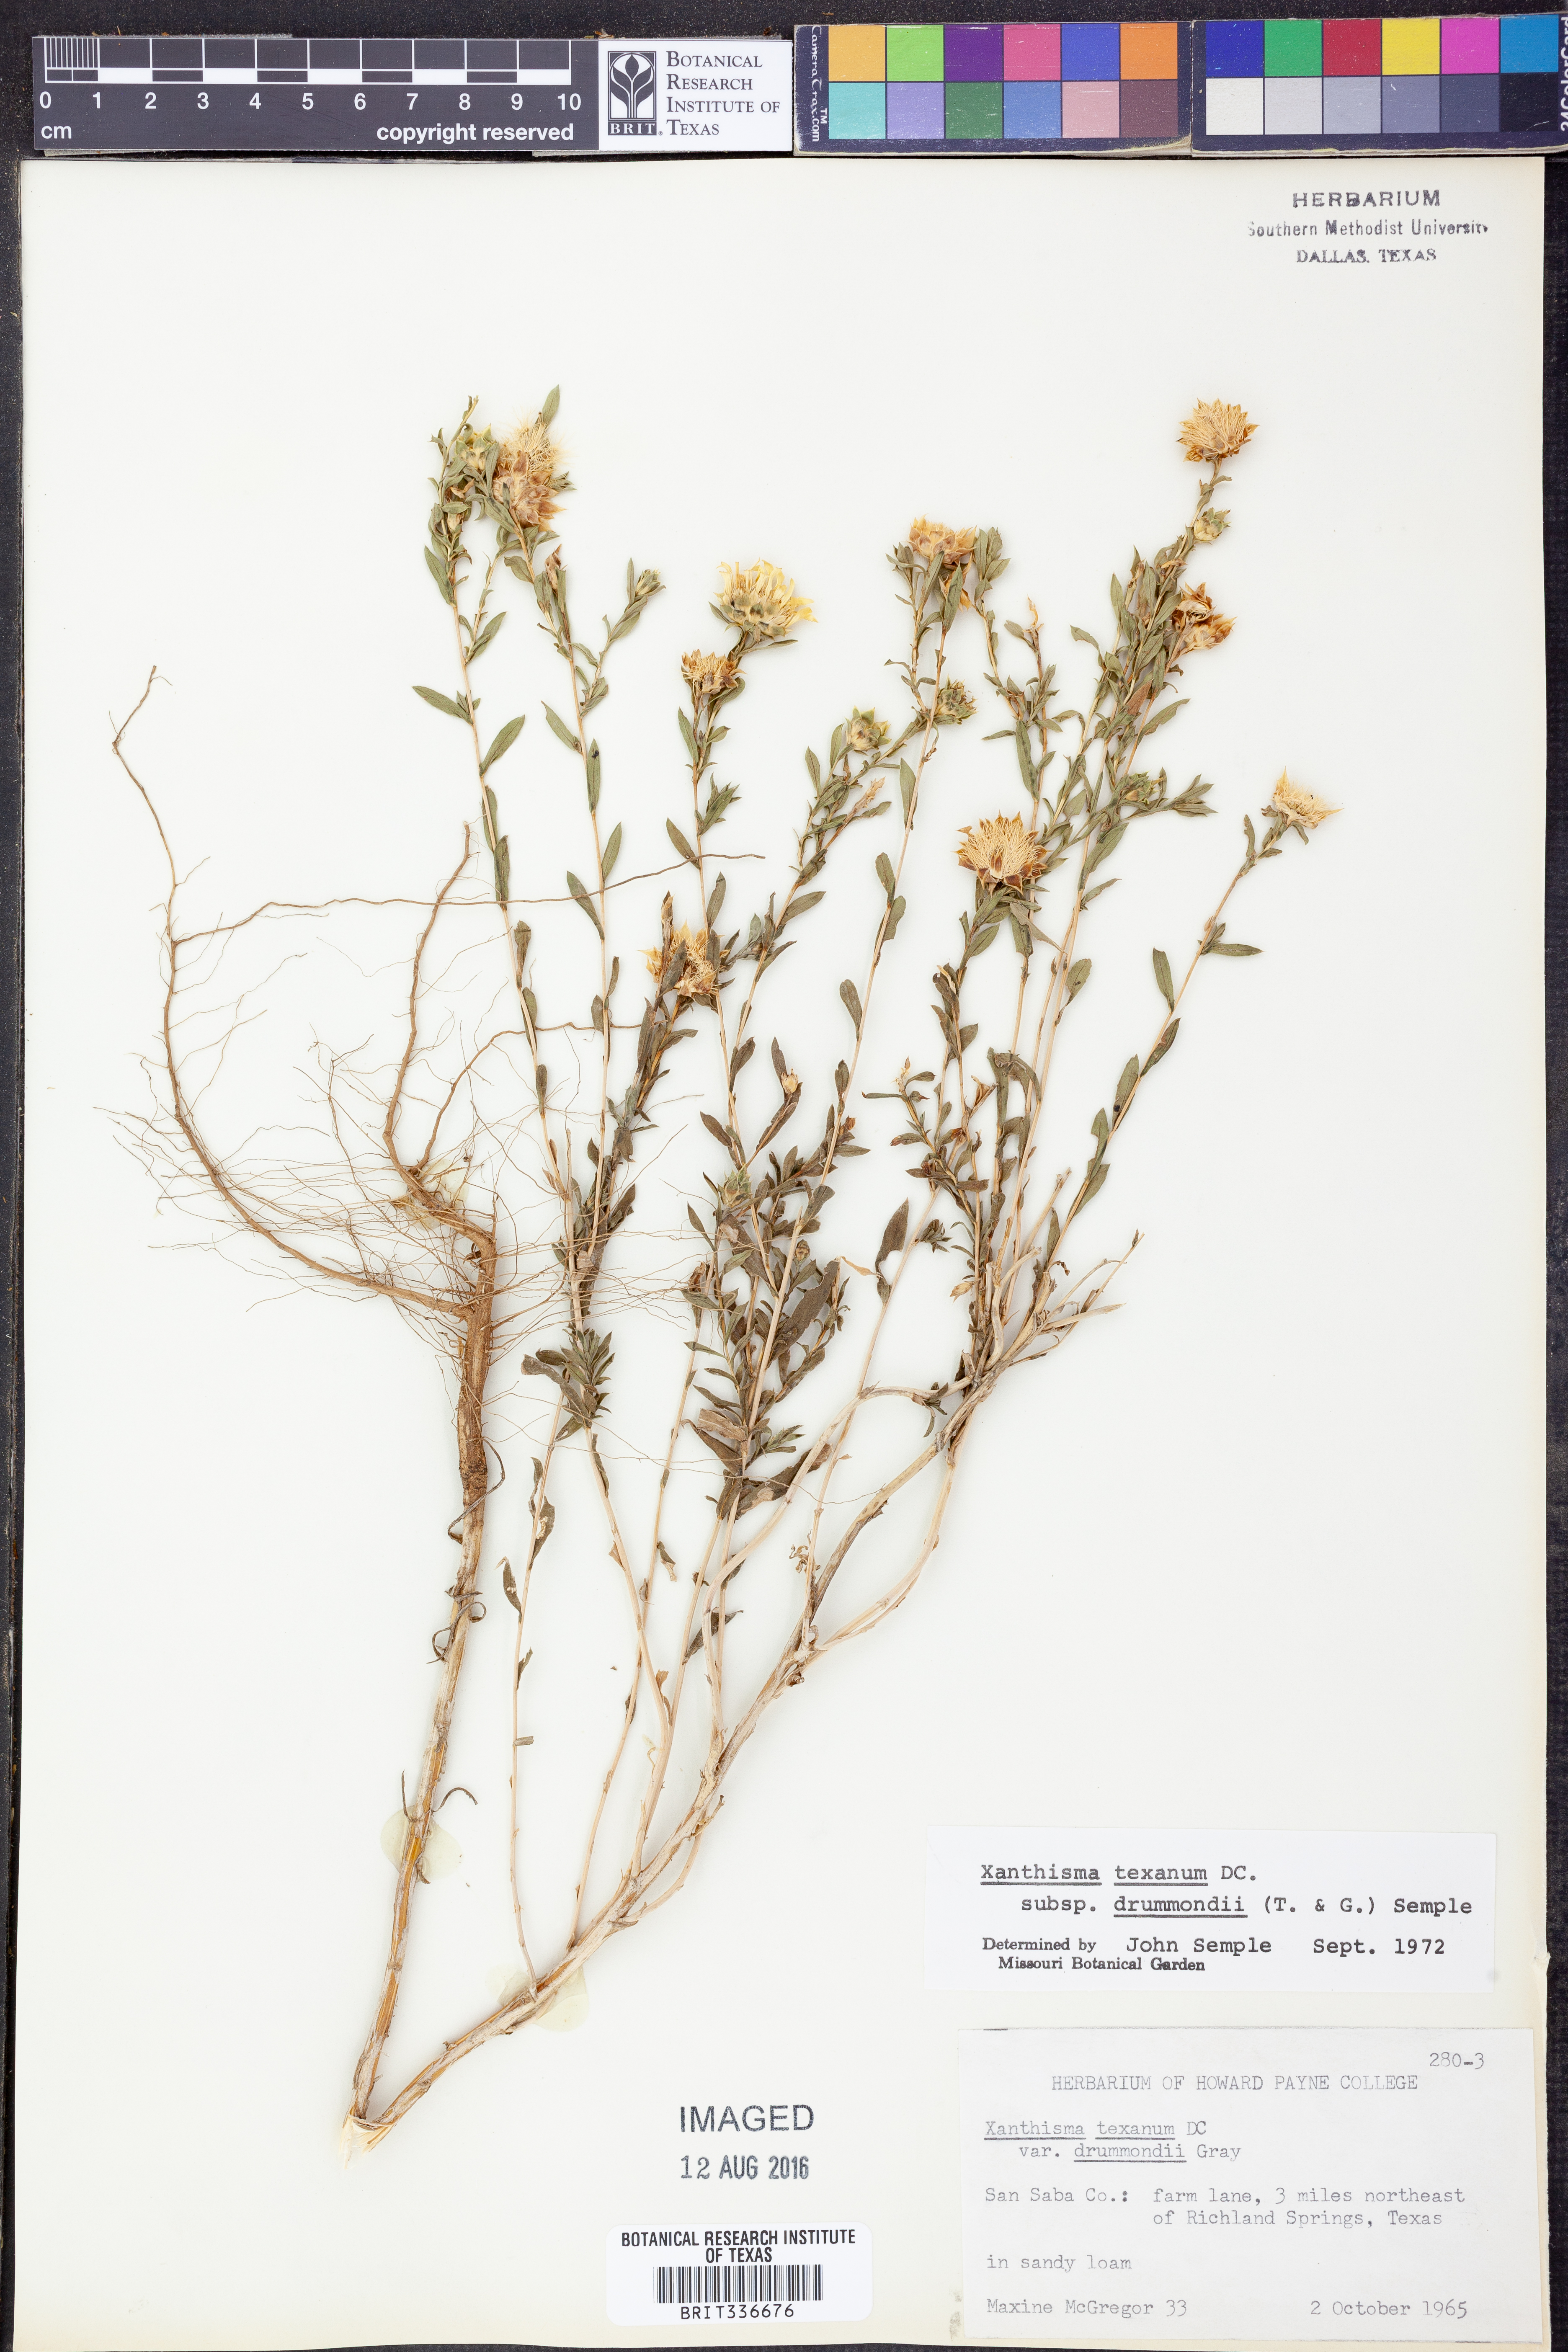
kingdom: Plantae
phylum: Tracheophyta
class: Magnoliopsida
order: Asterales
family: Asteraceae
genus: Xanthisma
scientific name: Xanthisma texanum
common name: Texas sleepy daisy
